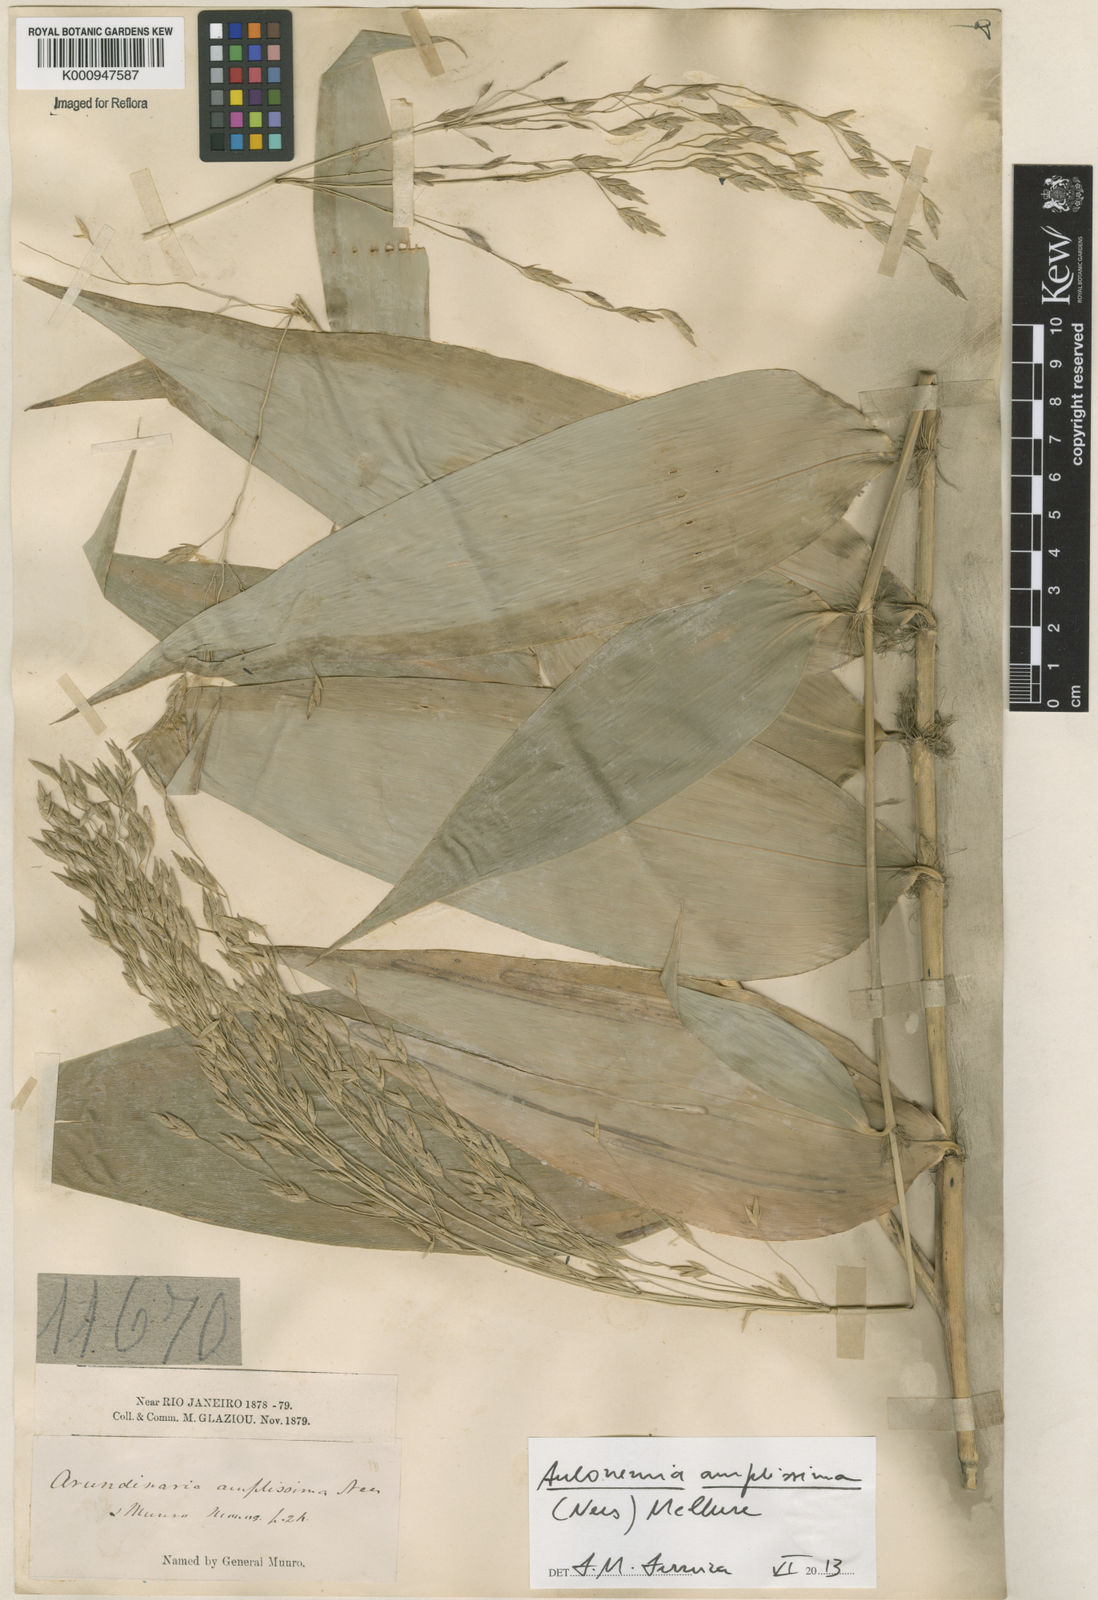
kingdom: Plantae
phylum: Tracheophyta
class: Liliopsida
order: Poales
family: Poaceae
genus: Aulonemia
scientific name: Aulonemia amplissima
